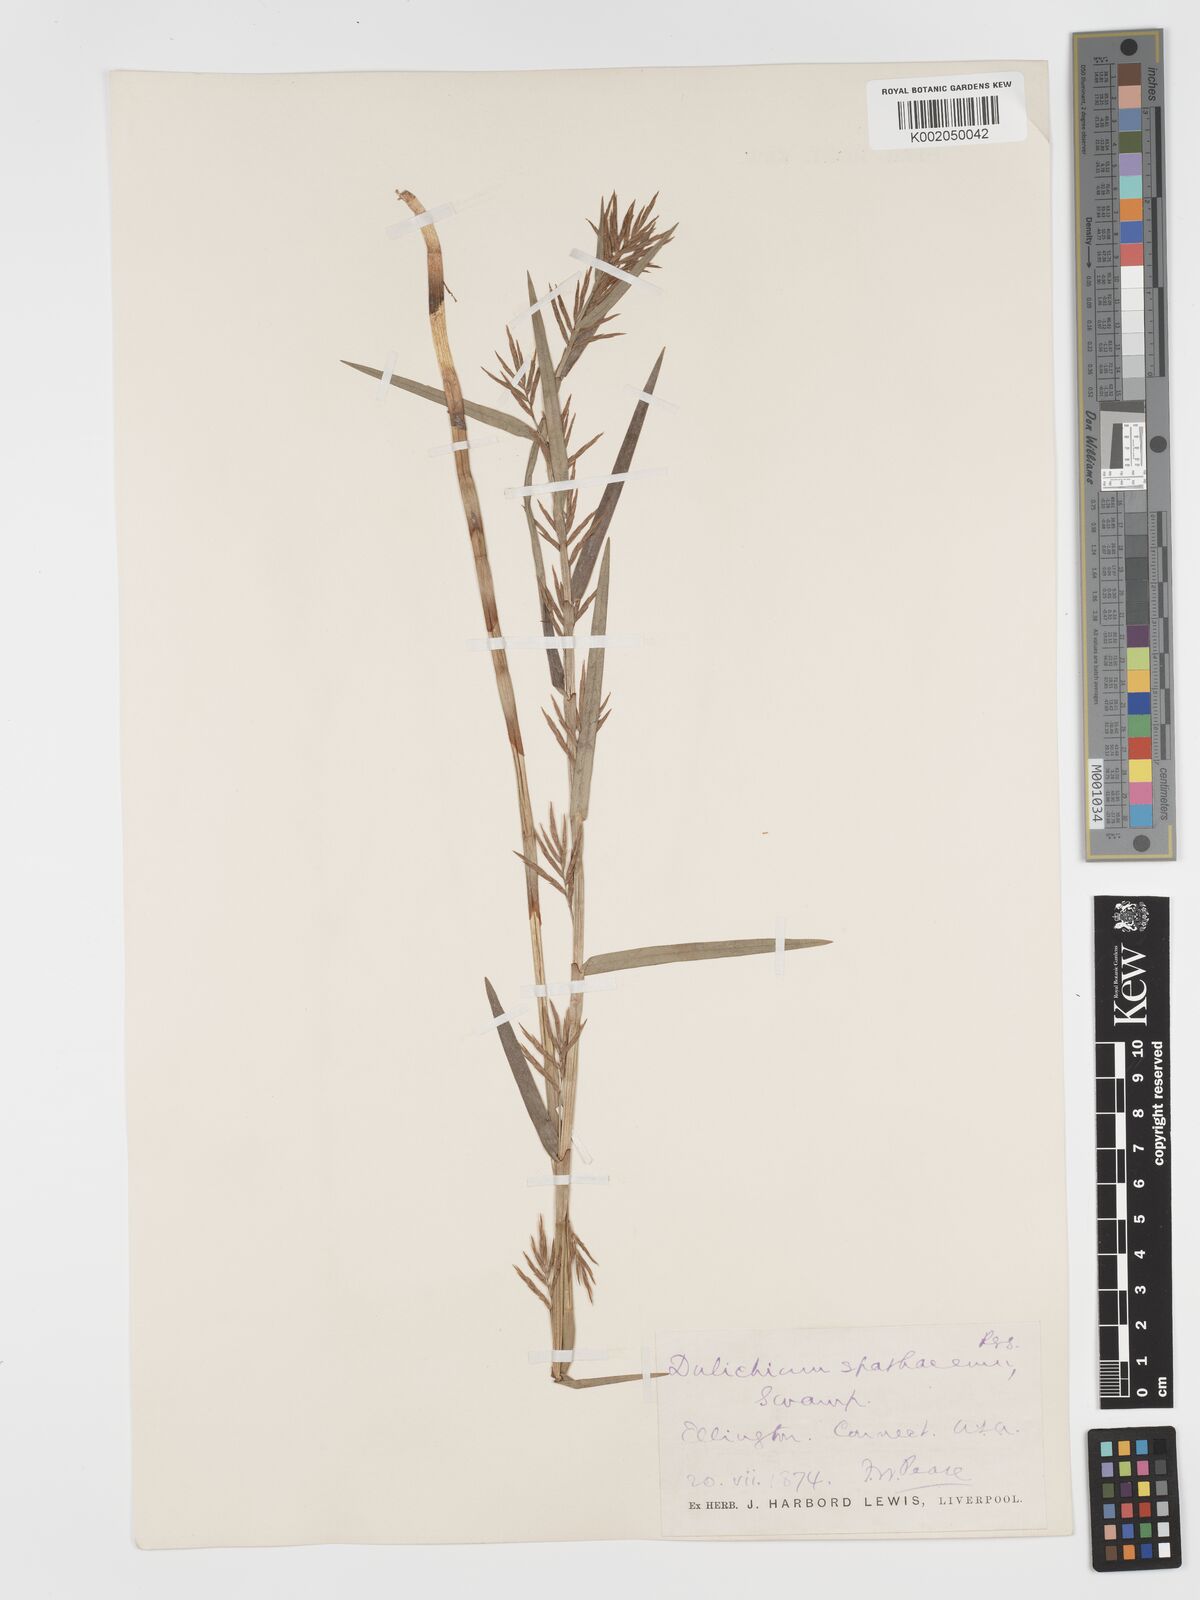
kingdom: Plantae
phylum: Tracheophyta
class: Liliopsida
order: Poales
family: Cyperaceae
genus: Dulichium
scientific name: Dulichium arundinaceum
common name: Three-way sedge
